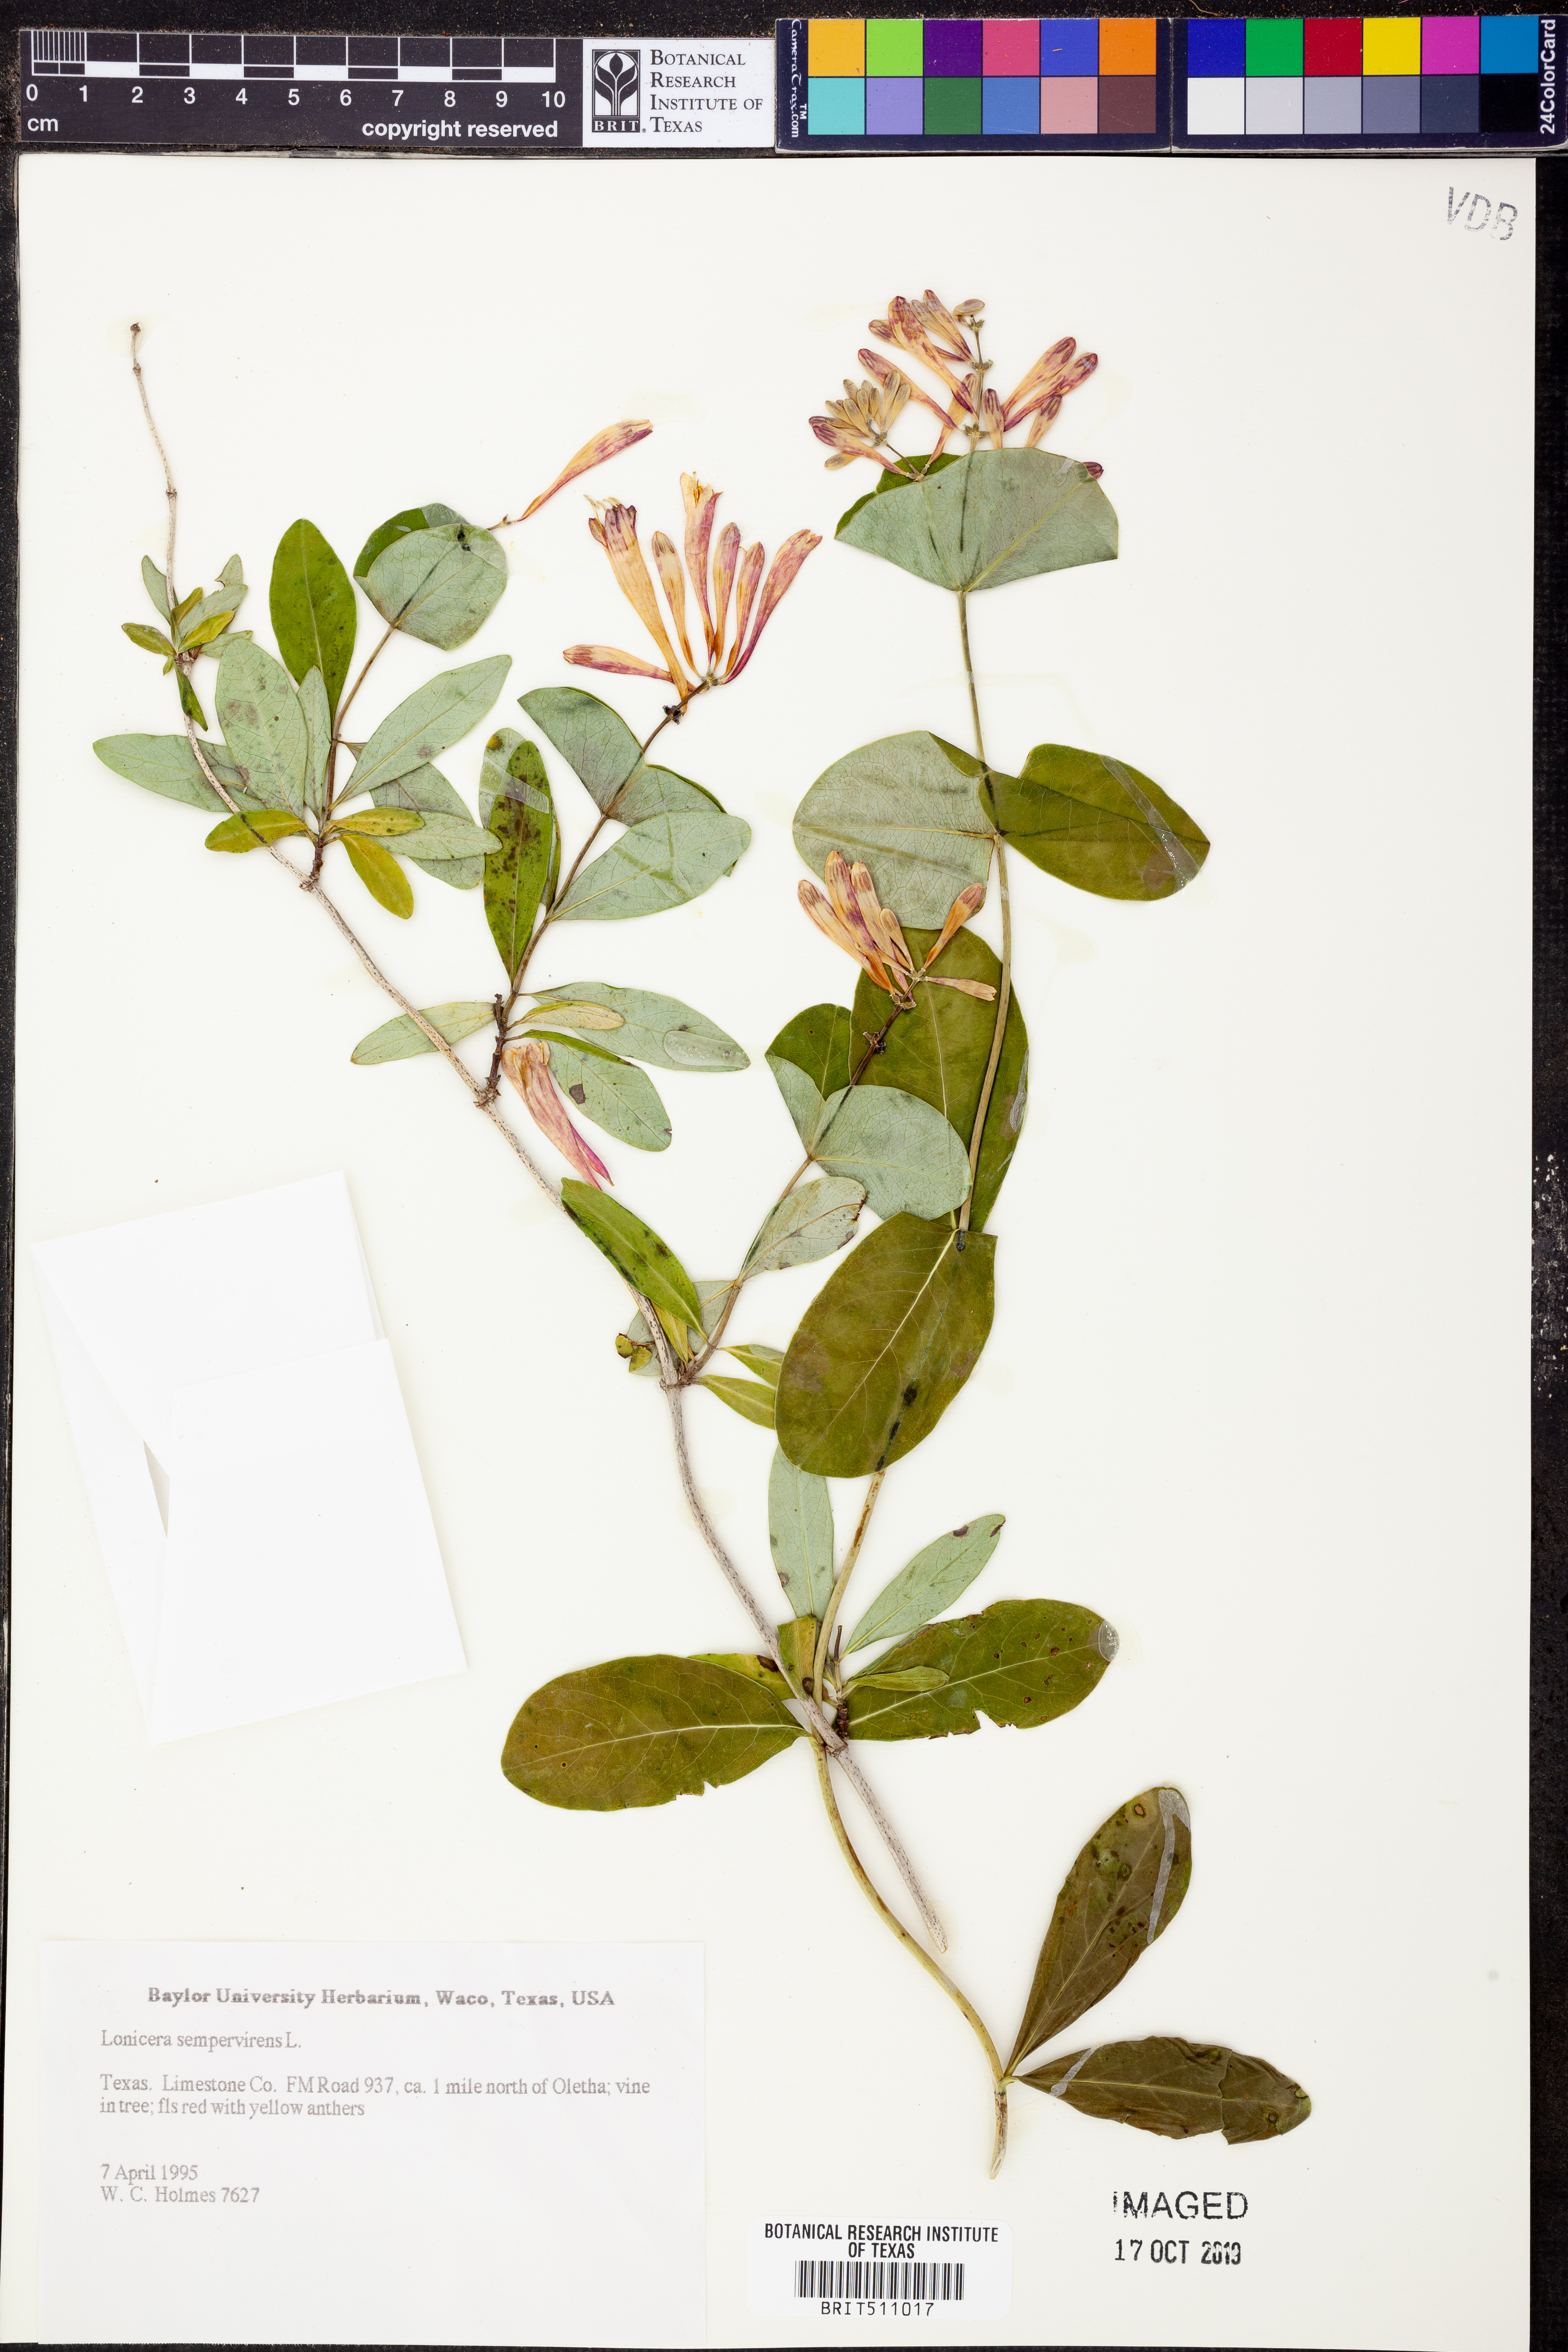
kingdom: Plantae
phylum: Tracheophyta
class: Magnoliopsida
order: Dipsacales
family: Caprifoliaceae
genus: Lonicera
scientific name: Lonicera sempervirens
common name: Coral honeysuckle
